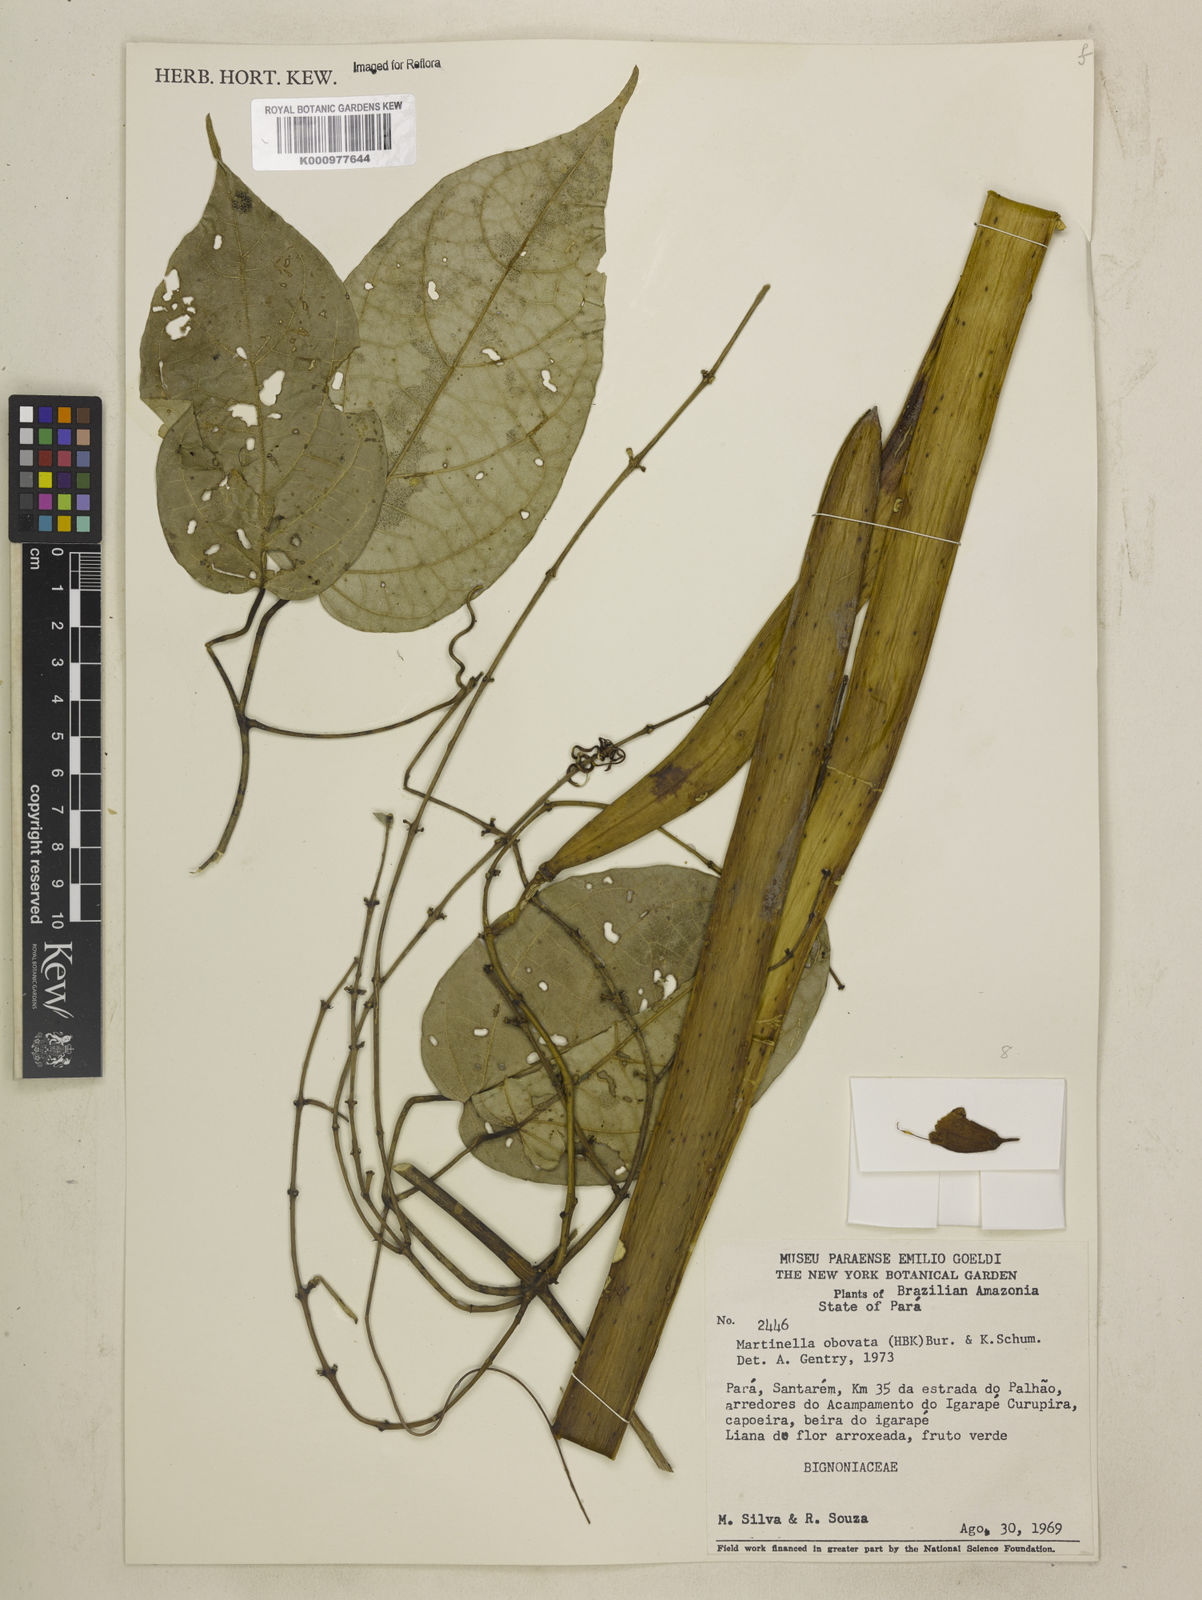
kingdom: Animalia
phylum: Arthropoda
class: Insecta
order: Coleoptera
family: Chrysomelidae
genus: Martinella
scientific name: Martinella obovata
